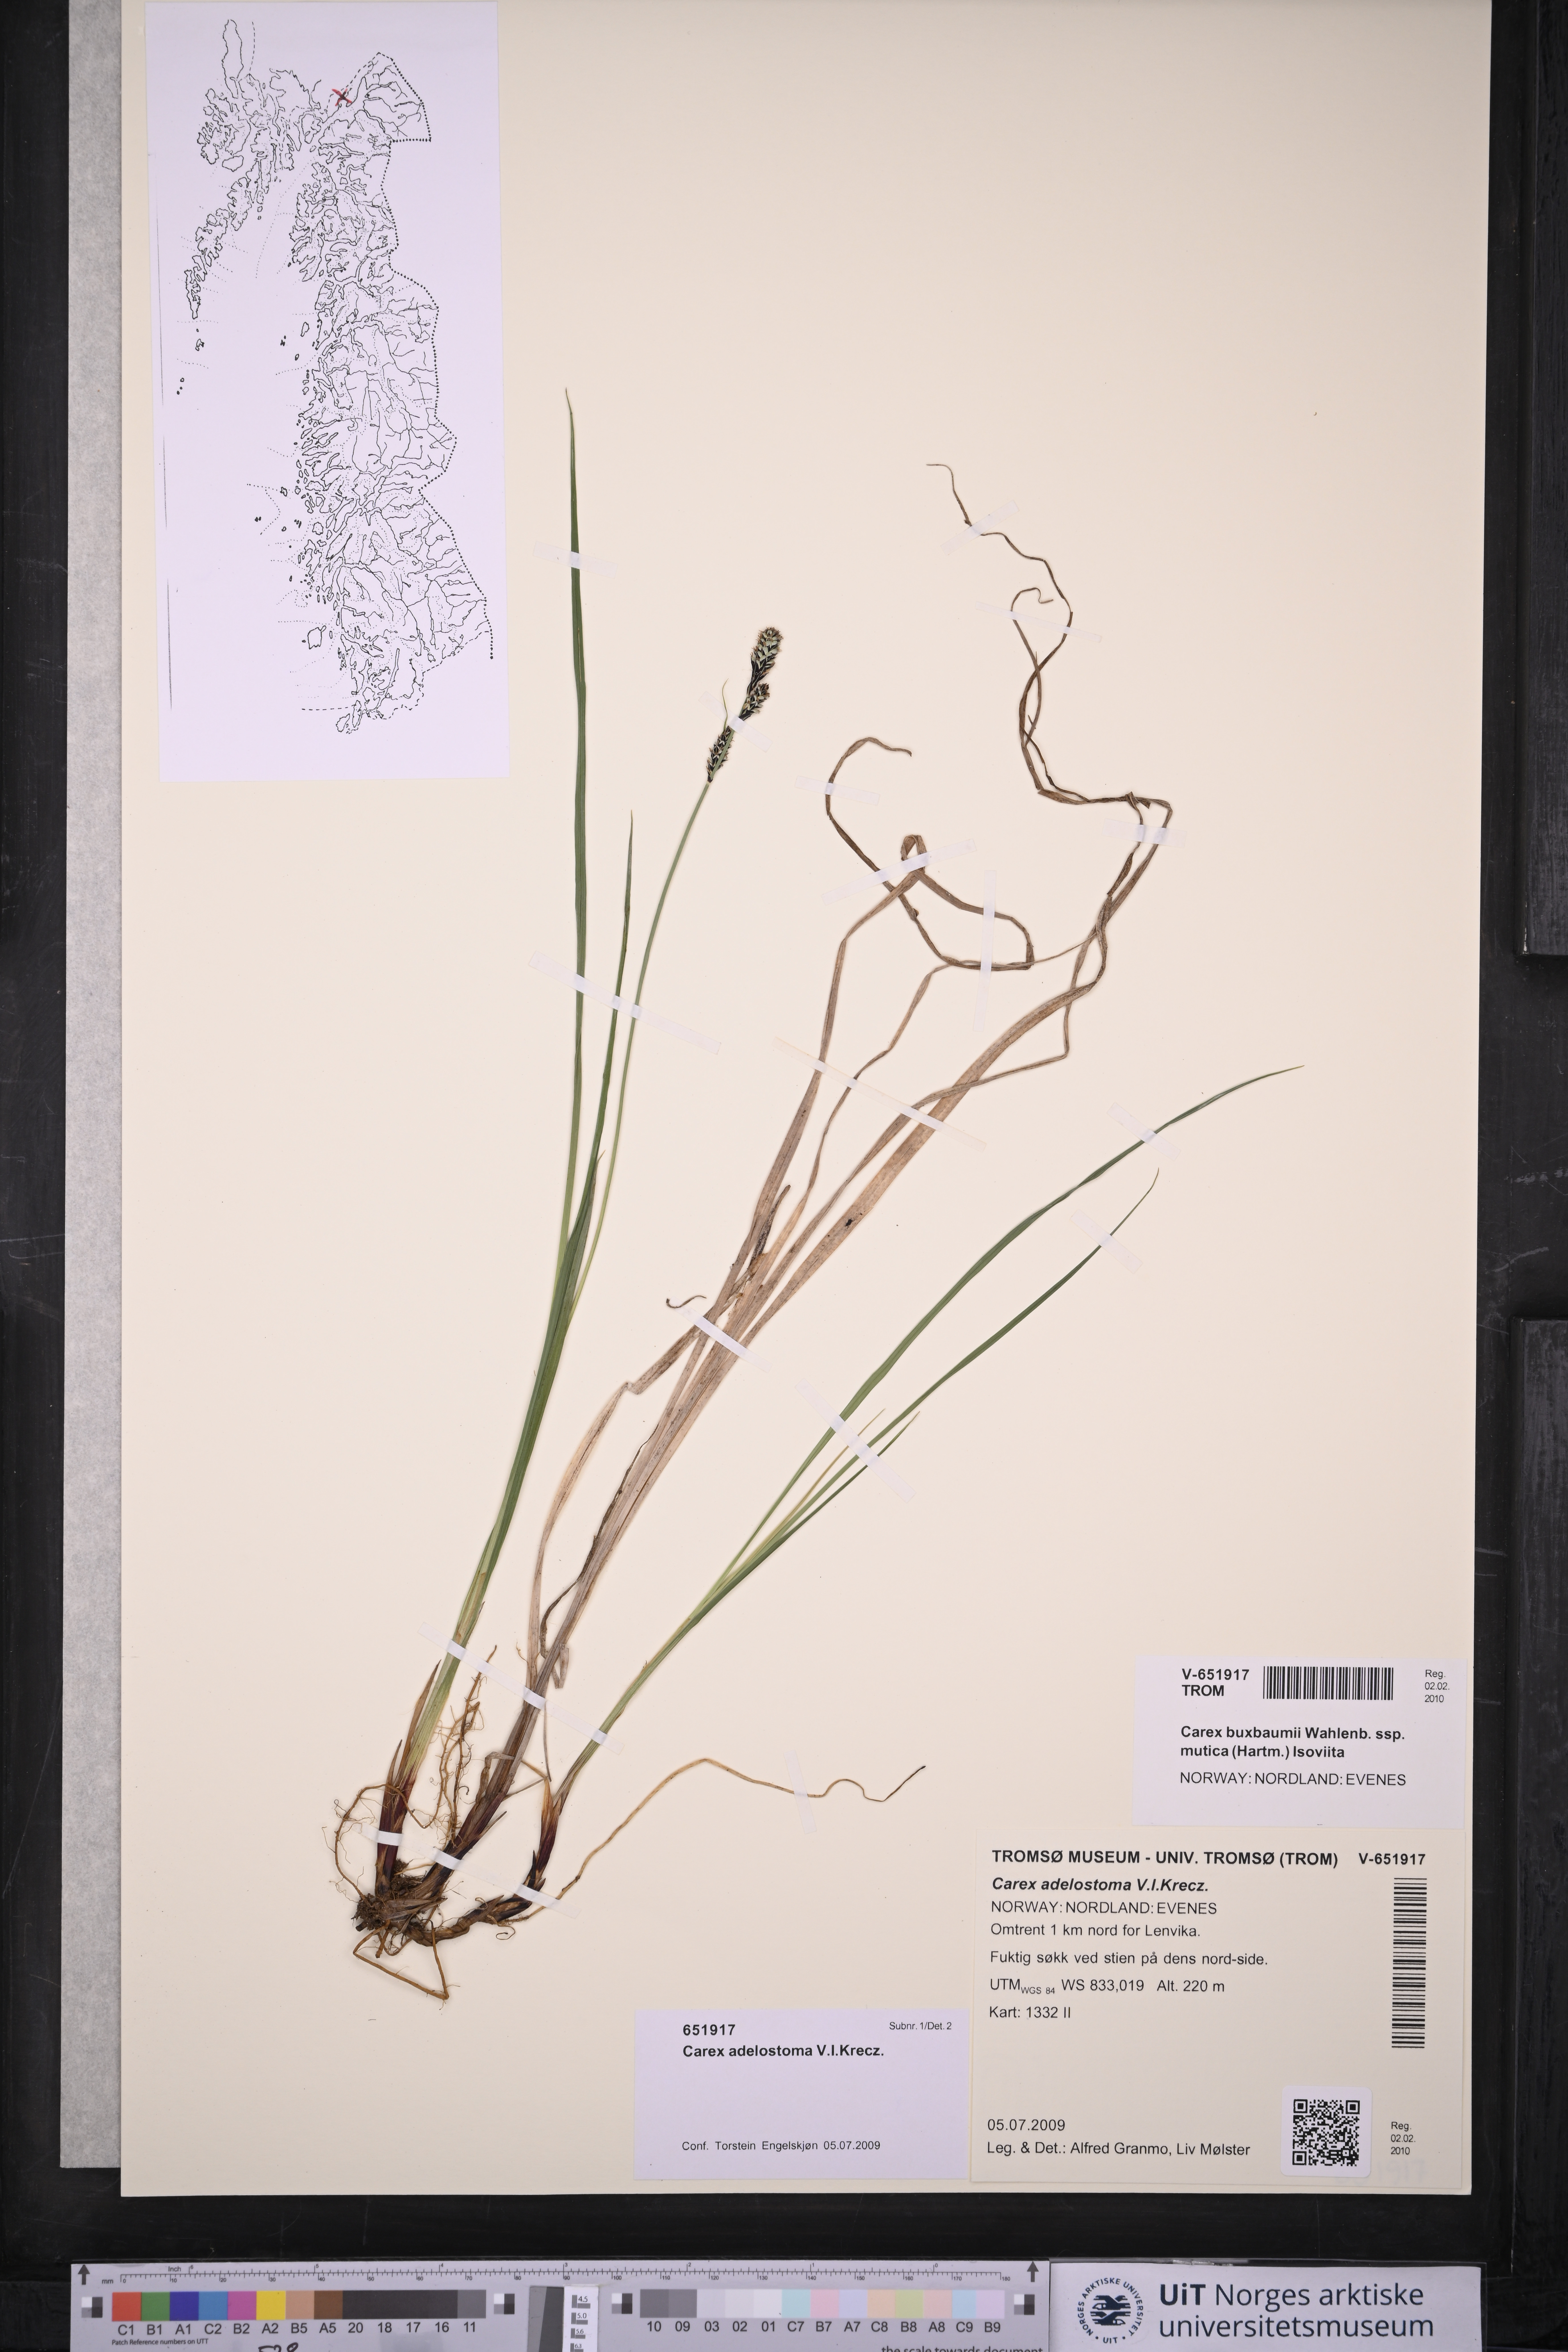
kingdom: Plantae
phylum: Tracheophyta
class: Liliopsida
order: Poales
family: Cyperaceae
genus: Carex
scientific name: Carex adelostoma
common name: Circumpolar sedge
